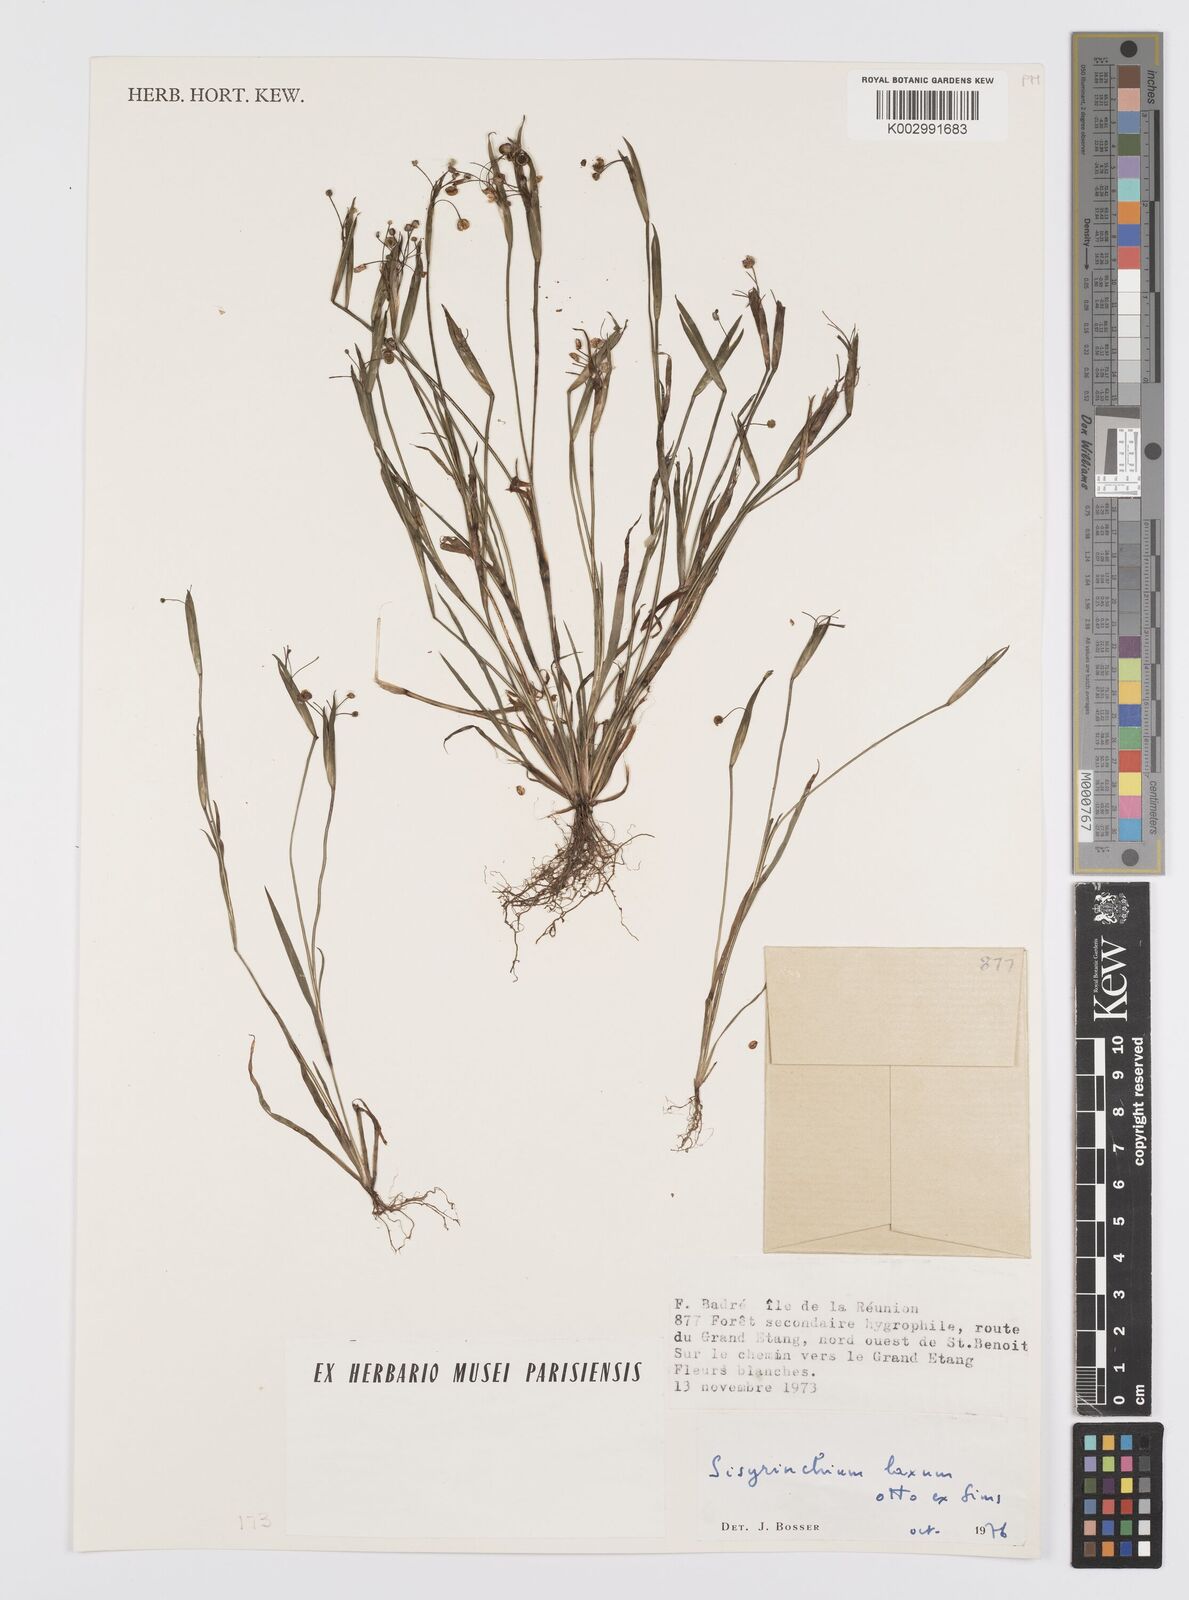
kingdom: Plantae
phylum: Tracheophyta
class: Liliopsida
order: Asparagales
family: Iridaceae
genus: Sisyrinchium
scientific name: Sisyrinchium laxum
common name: Veined yellow-eyed-grass
